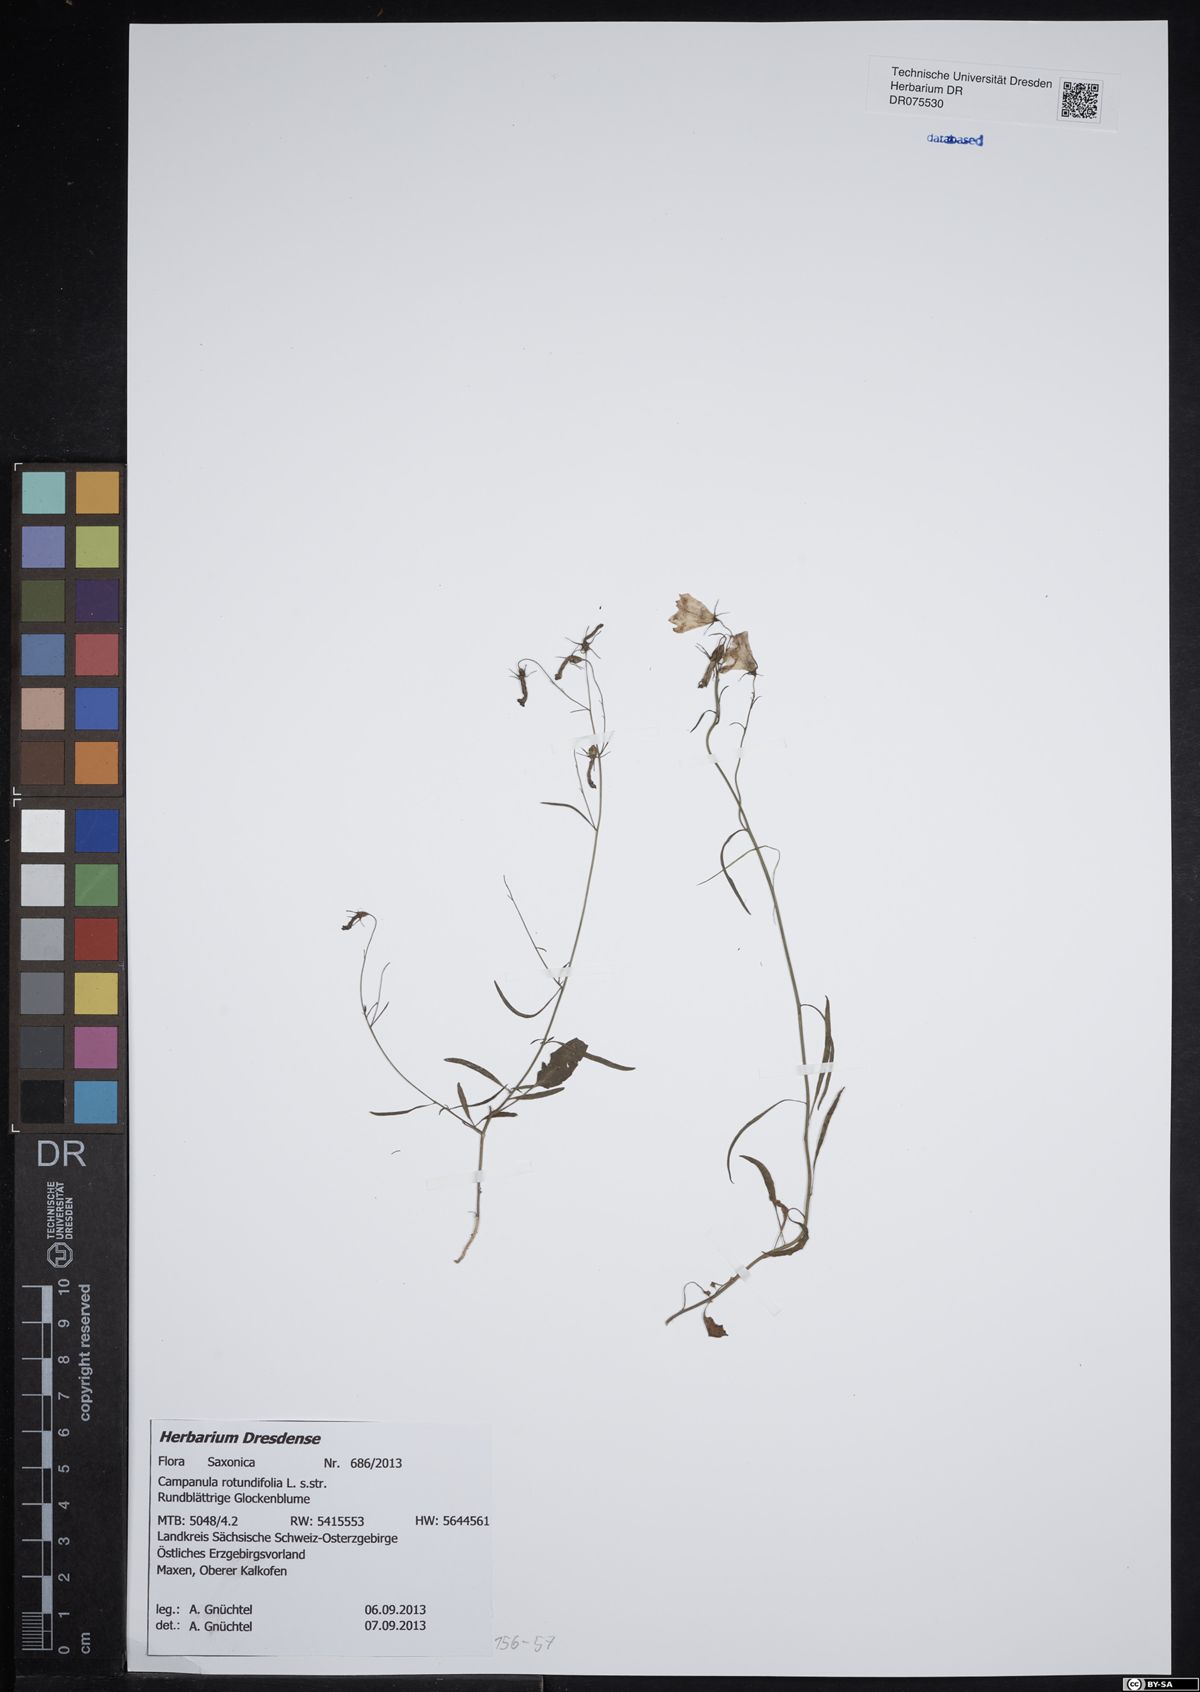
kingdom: Plantae
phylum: Tracheophyta
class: Magnoliopsida
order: Asterales
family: Campanulaceae
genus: Campanula
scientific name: Campanula rotundifolia
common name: Harebell
